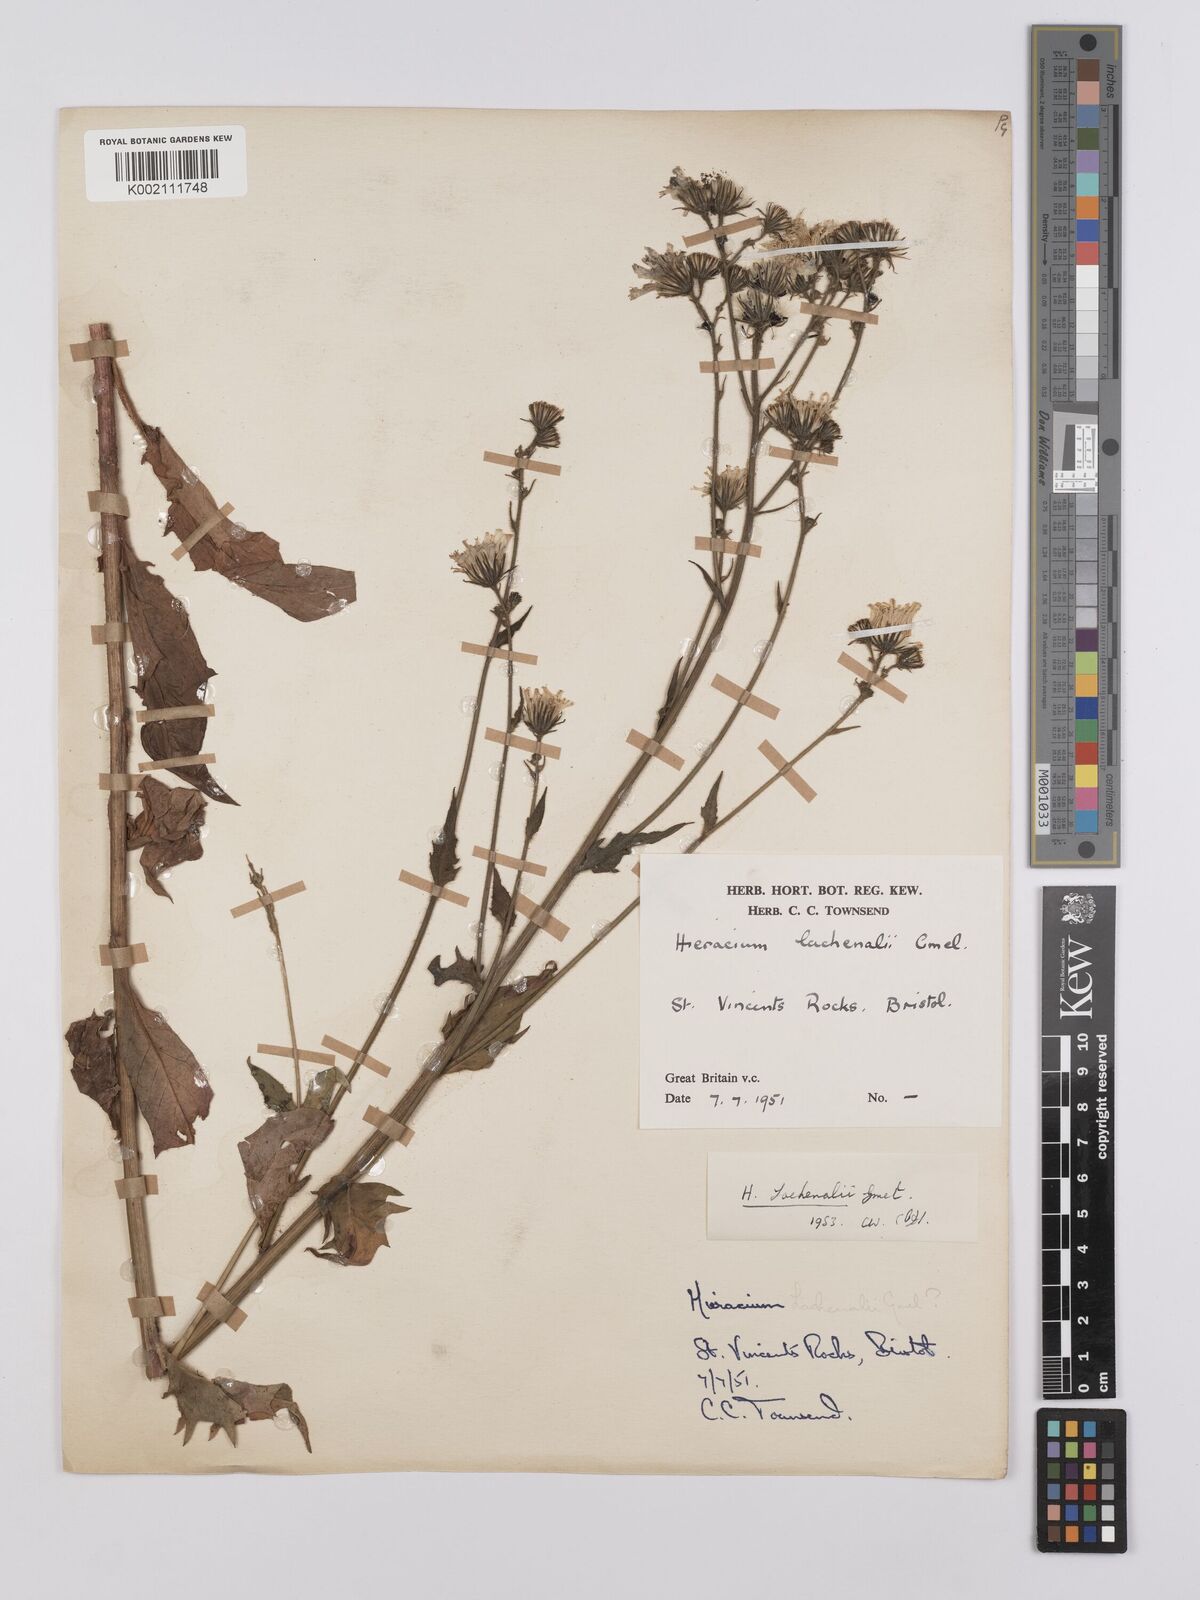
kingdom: Plantae
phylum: Tracheophyta
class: Magnoliopsida
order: Asterales
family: Asteraceae
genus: Hieracium
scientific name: Hieracium lachenalii
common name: Common hawkweed
